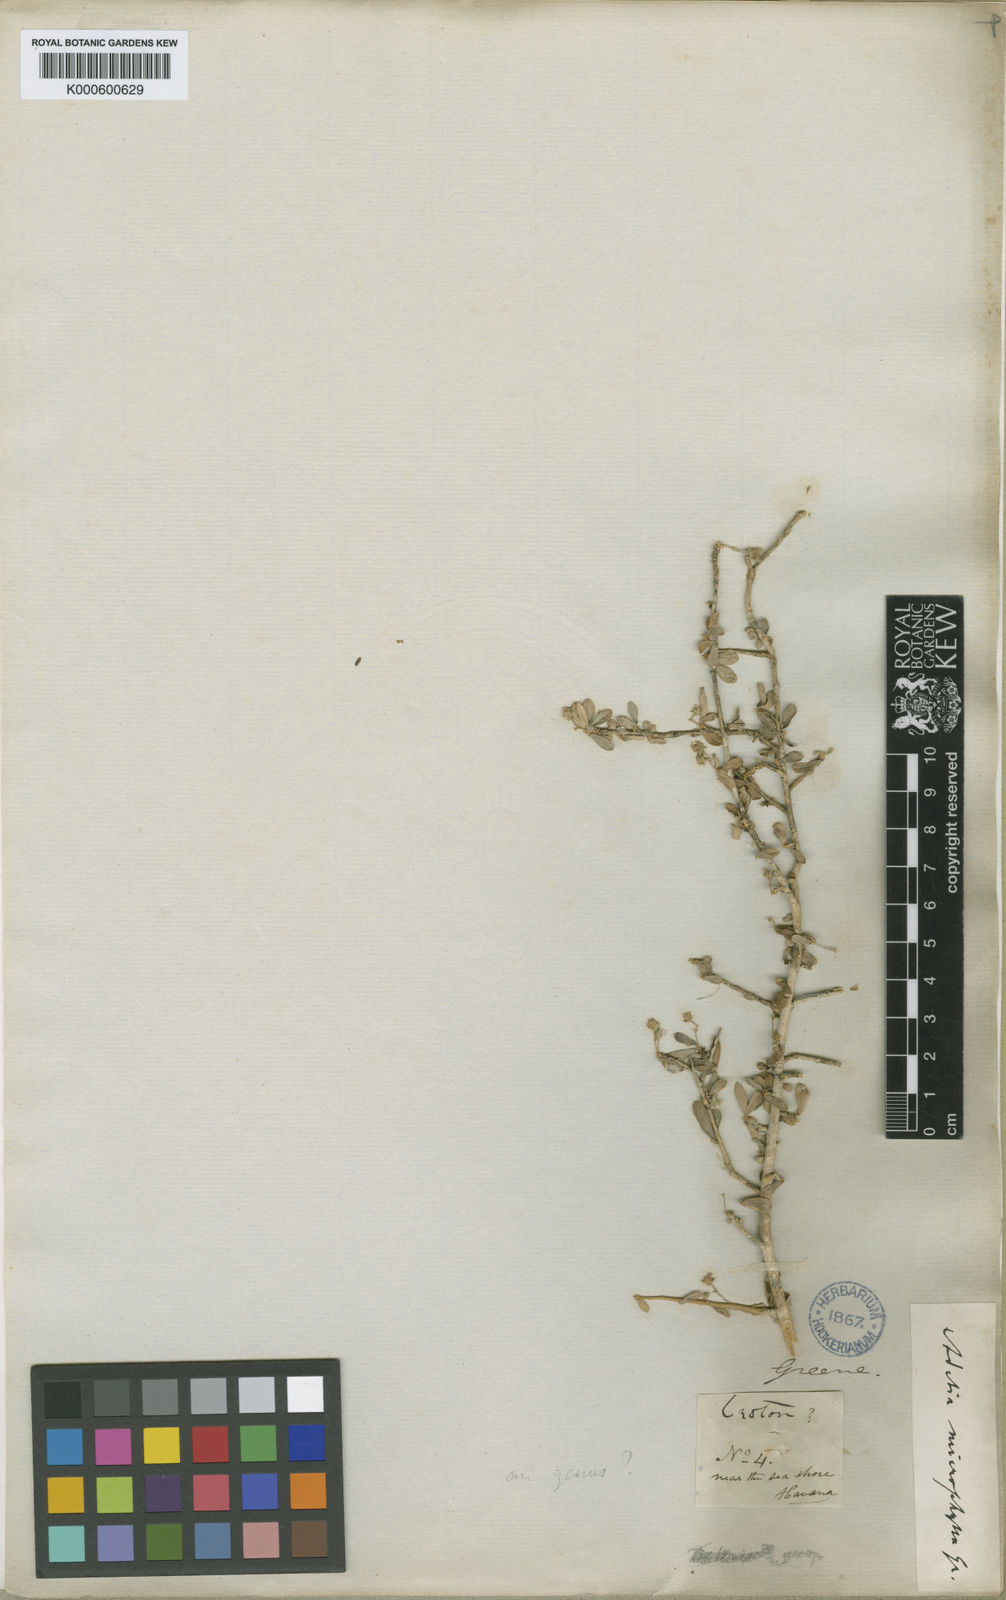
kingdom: Plantae
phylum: Tracheophyta
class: Magnoliopsida
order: Malpighiales
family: Euphorbiaceae
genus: Lasiocroton
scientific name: Lasiocroton microphyllus
